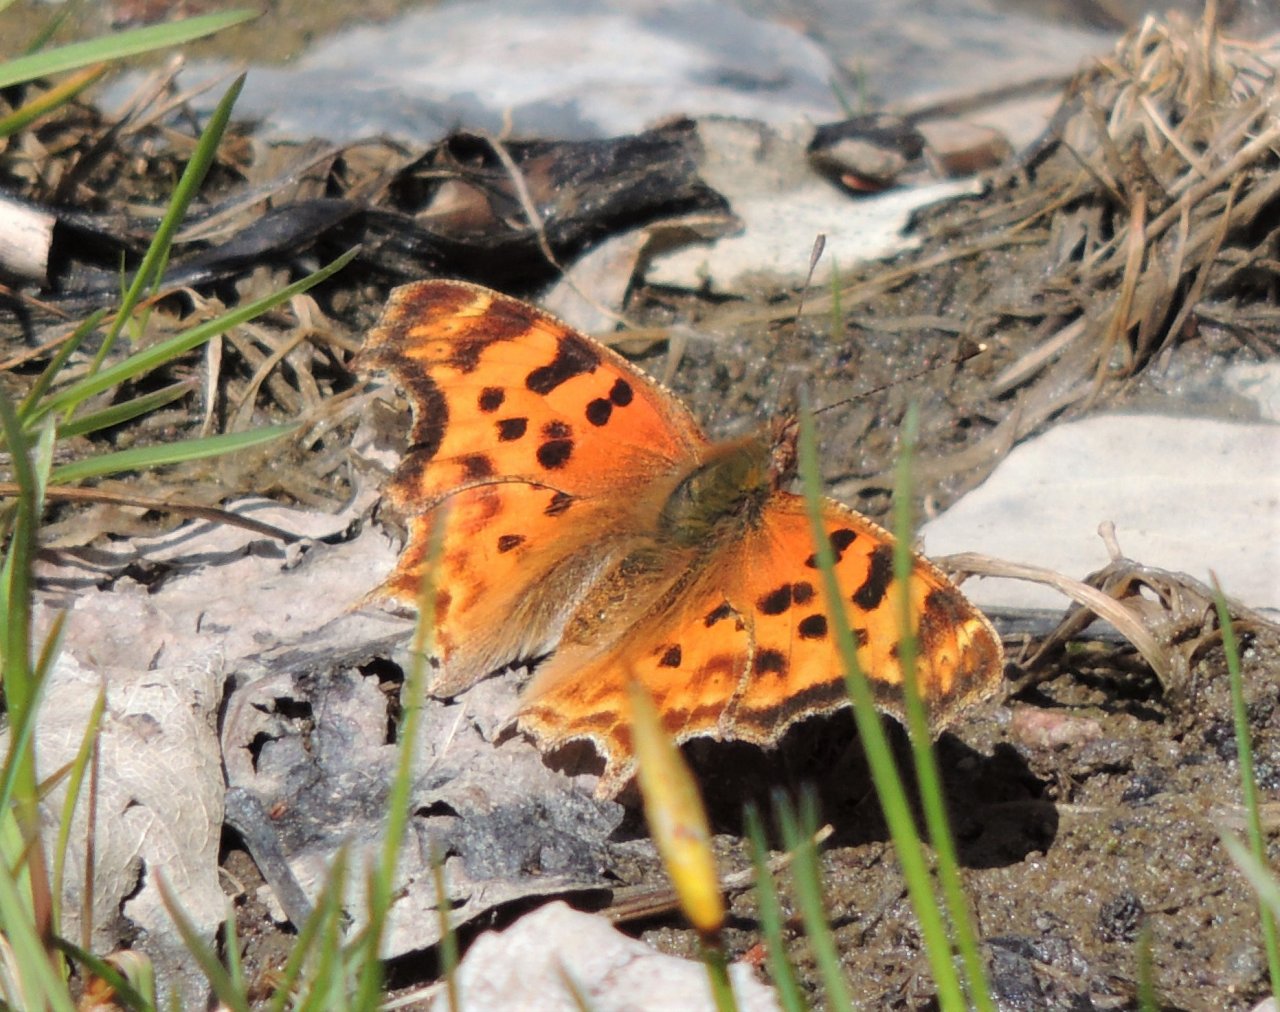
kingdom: Animalia
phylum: Arthropoda
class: Insecta
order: Lepidoptera
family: Nymphalidae
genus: Polygonia
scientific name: Polygonia satyrus
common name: Satyr Comma
